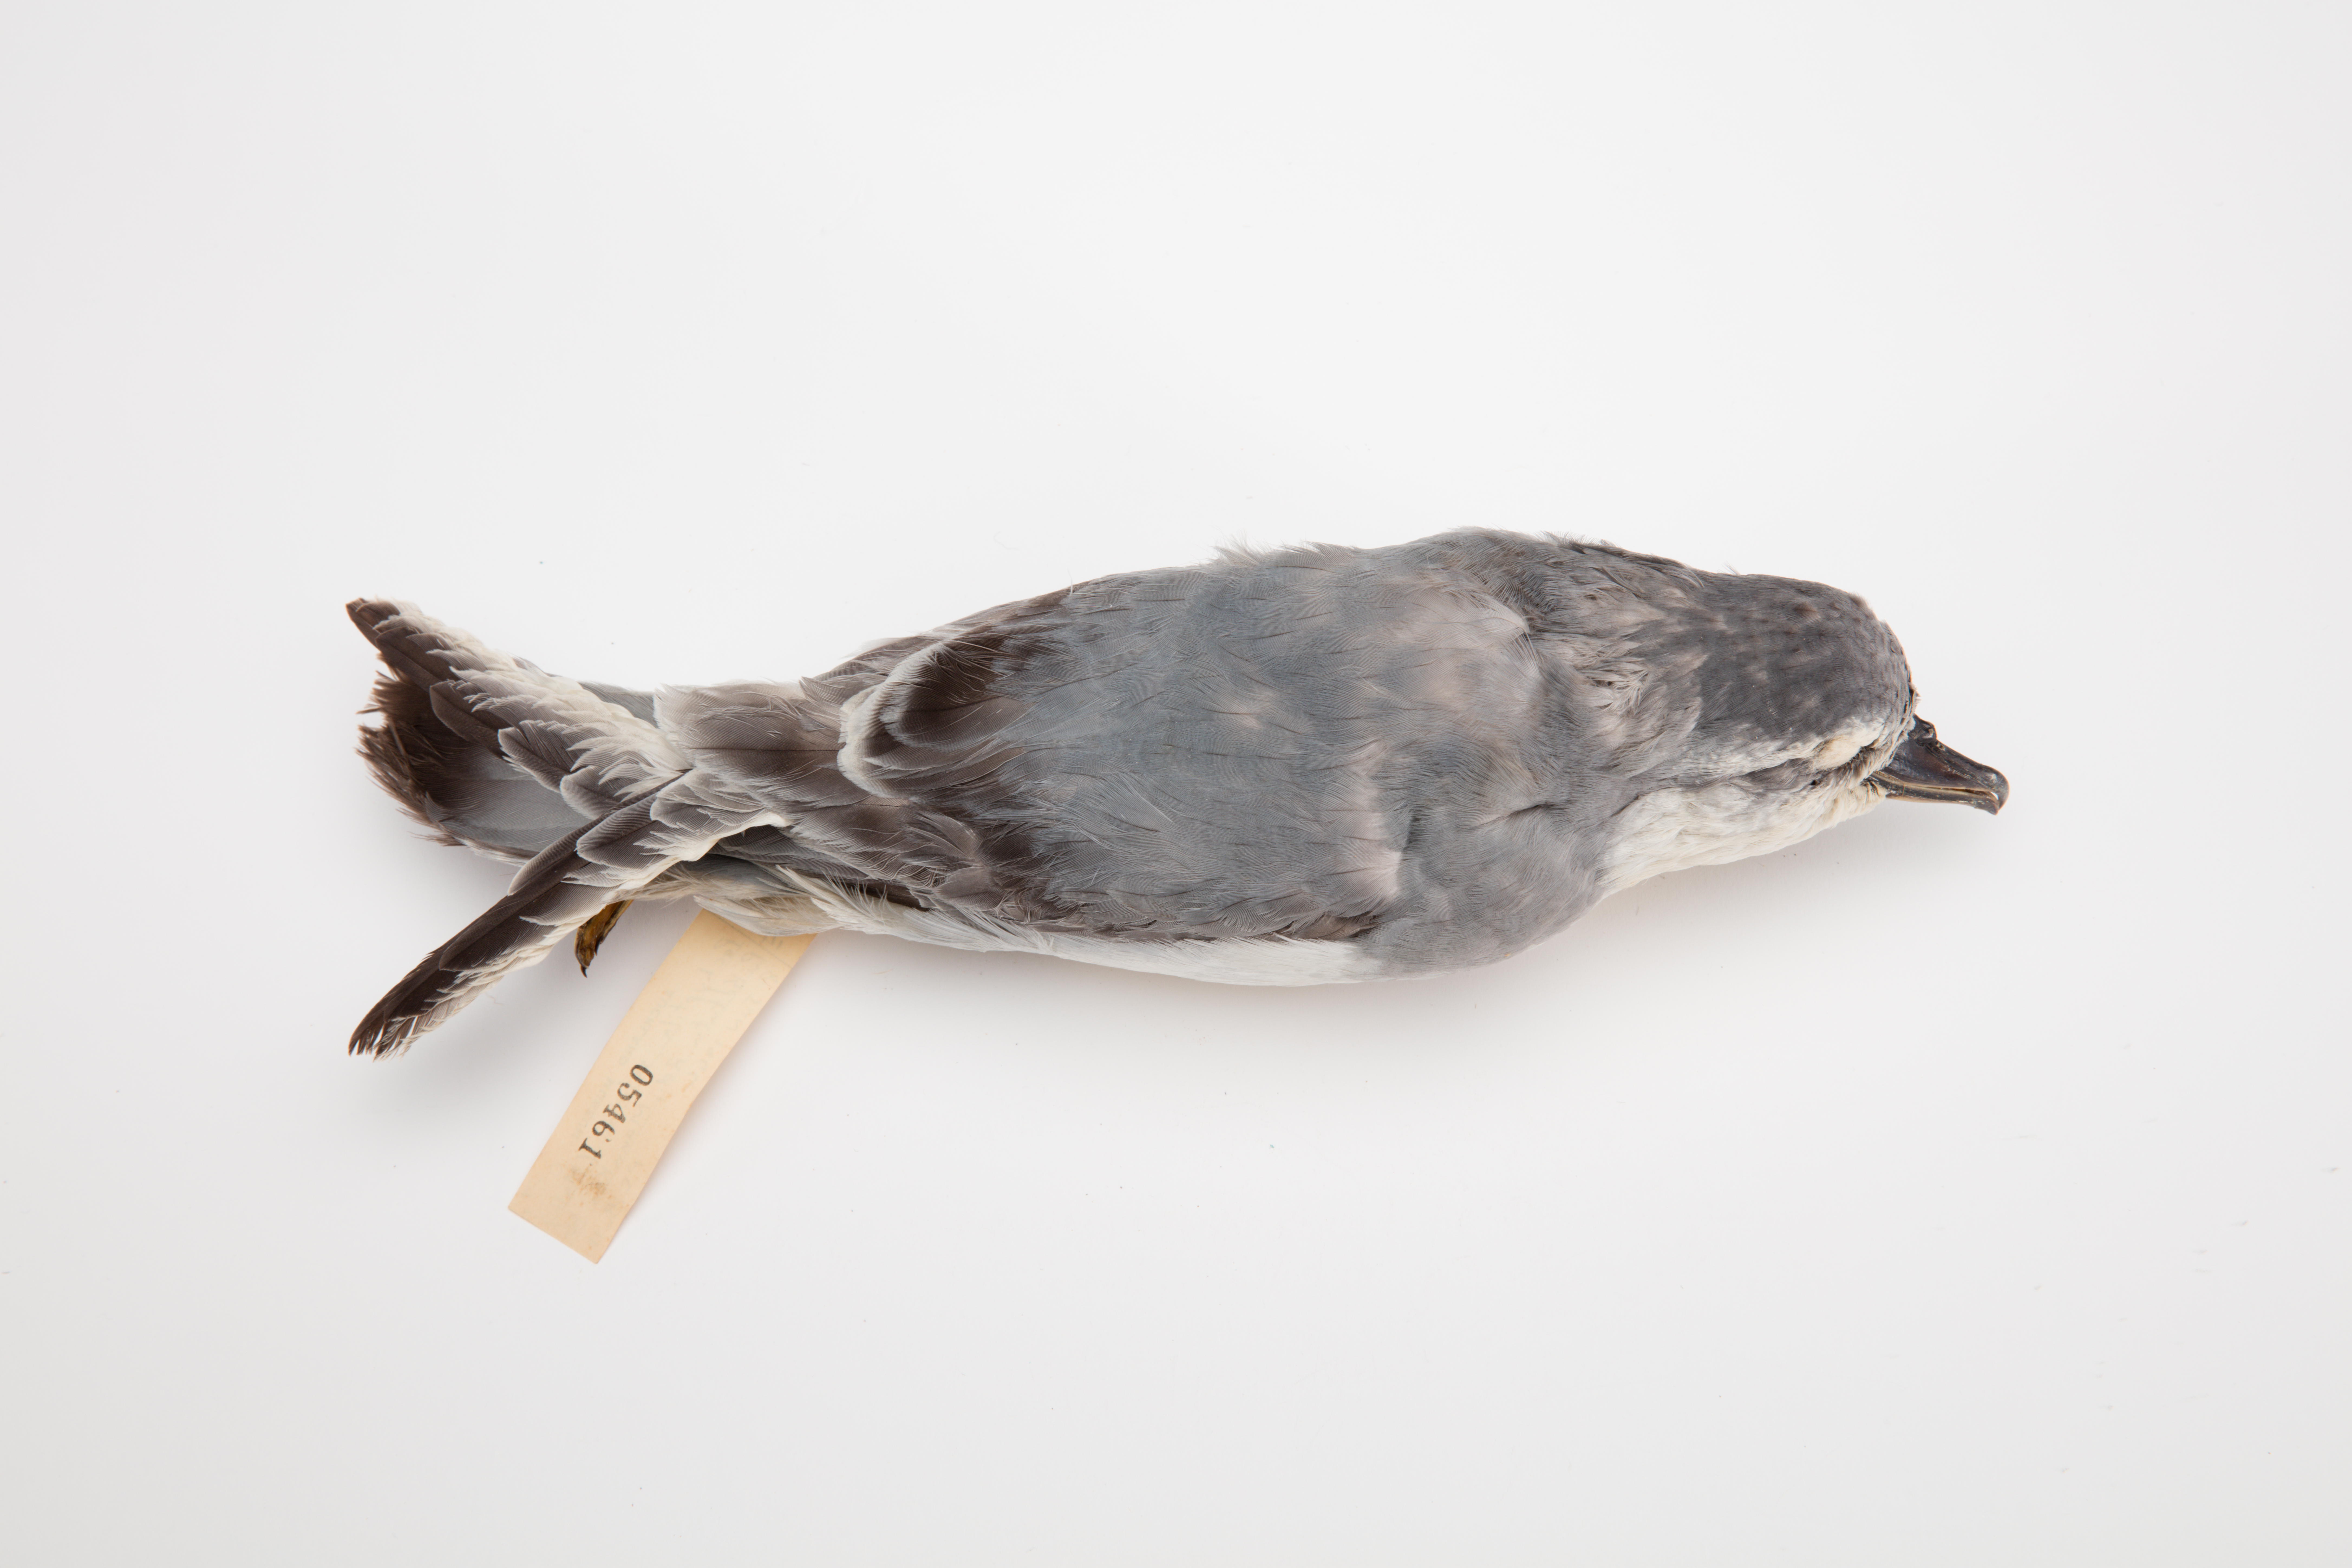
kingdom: Animalia
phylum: Chordata
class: Aves
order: Procellariiformes
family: Procellariidae
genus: Pachyptila
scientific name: Pachyptila salvini
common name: Salvin's prion
